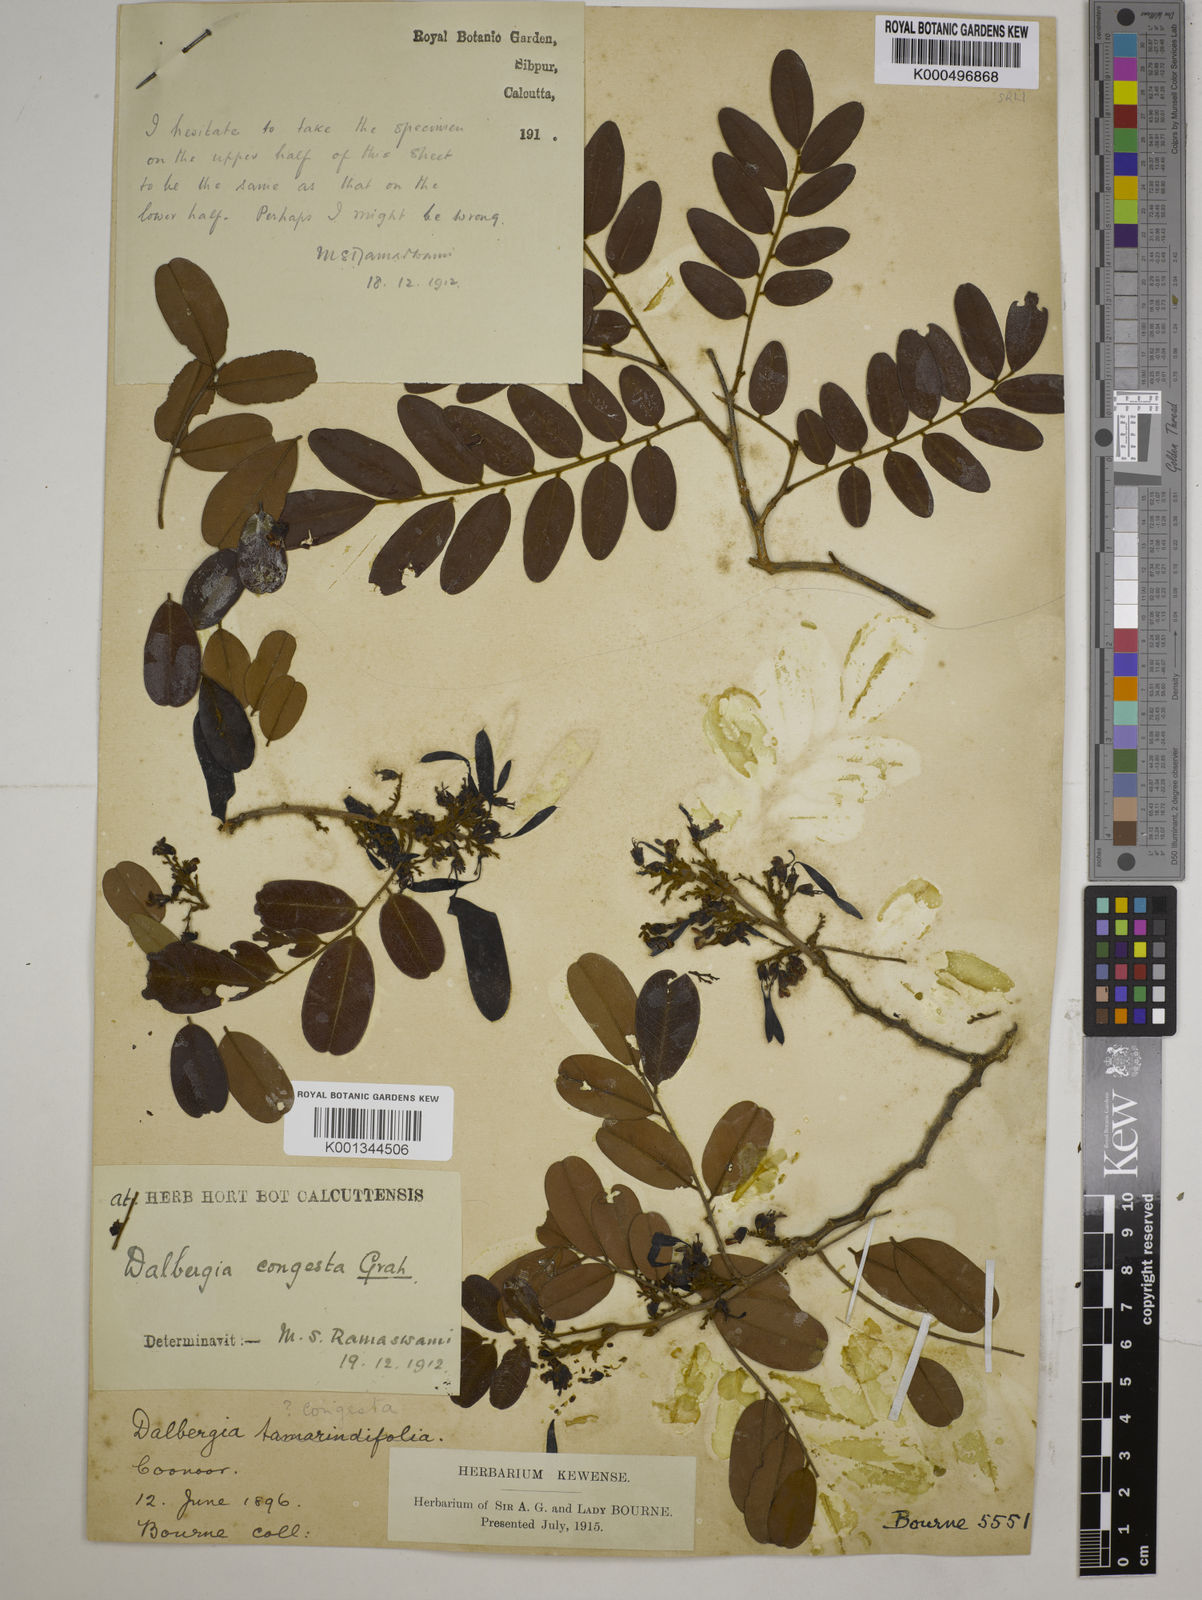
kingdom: Plantae
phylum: Tracheophyta
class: Magnoliopsida
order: Fabales
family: Fabaceae
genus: Dalbergia
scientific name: Dalbergia congesta
